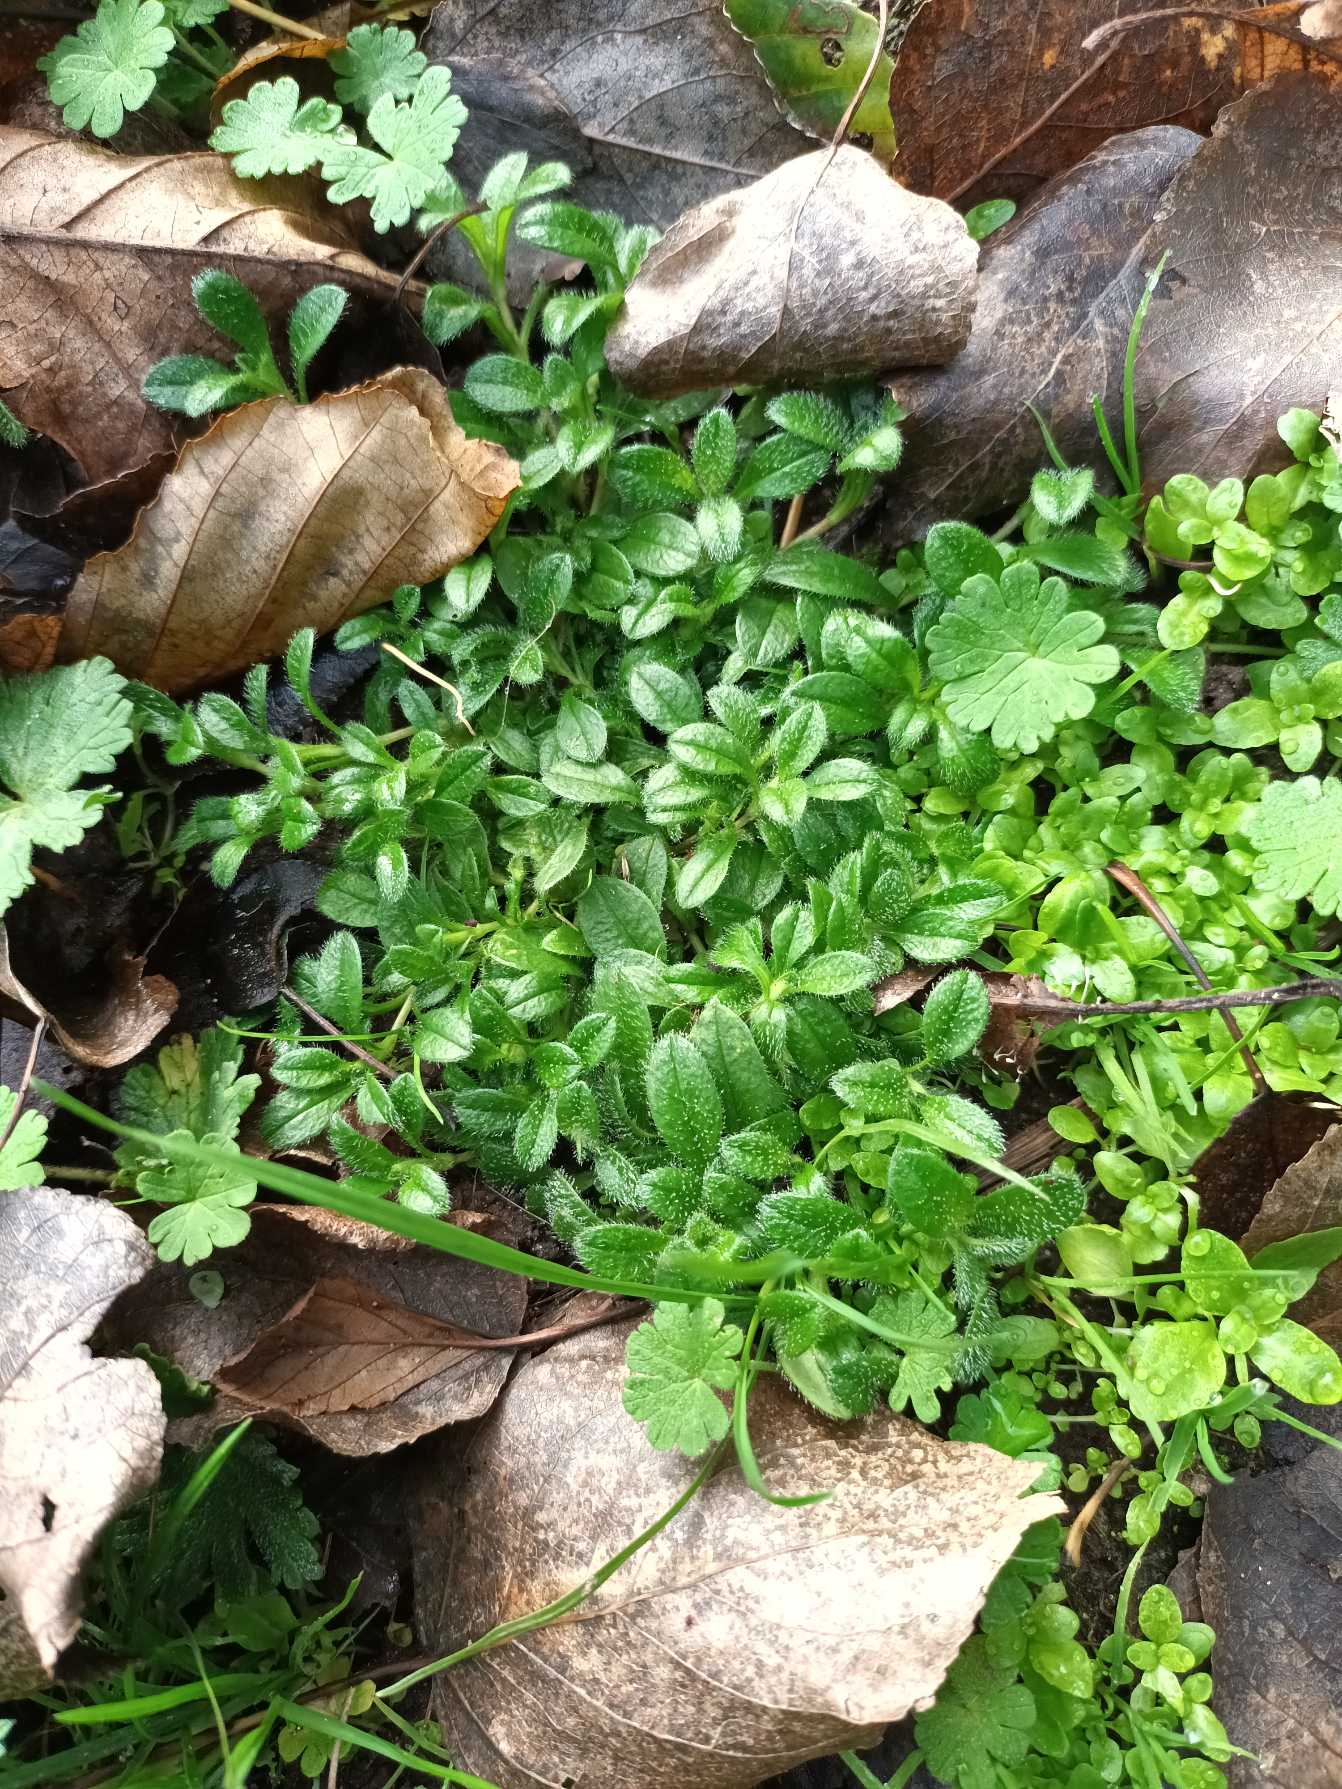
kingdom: Plantae
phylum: Tracheophyta
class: Magnoliopsida
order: Caryophyllales
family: Caryophyllaceae
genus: Cerastium
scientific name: Cerastium fontanum
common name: Almindelig hønsetarm
